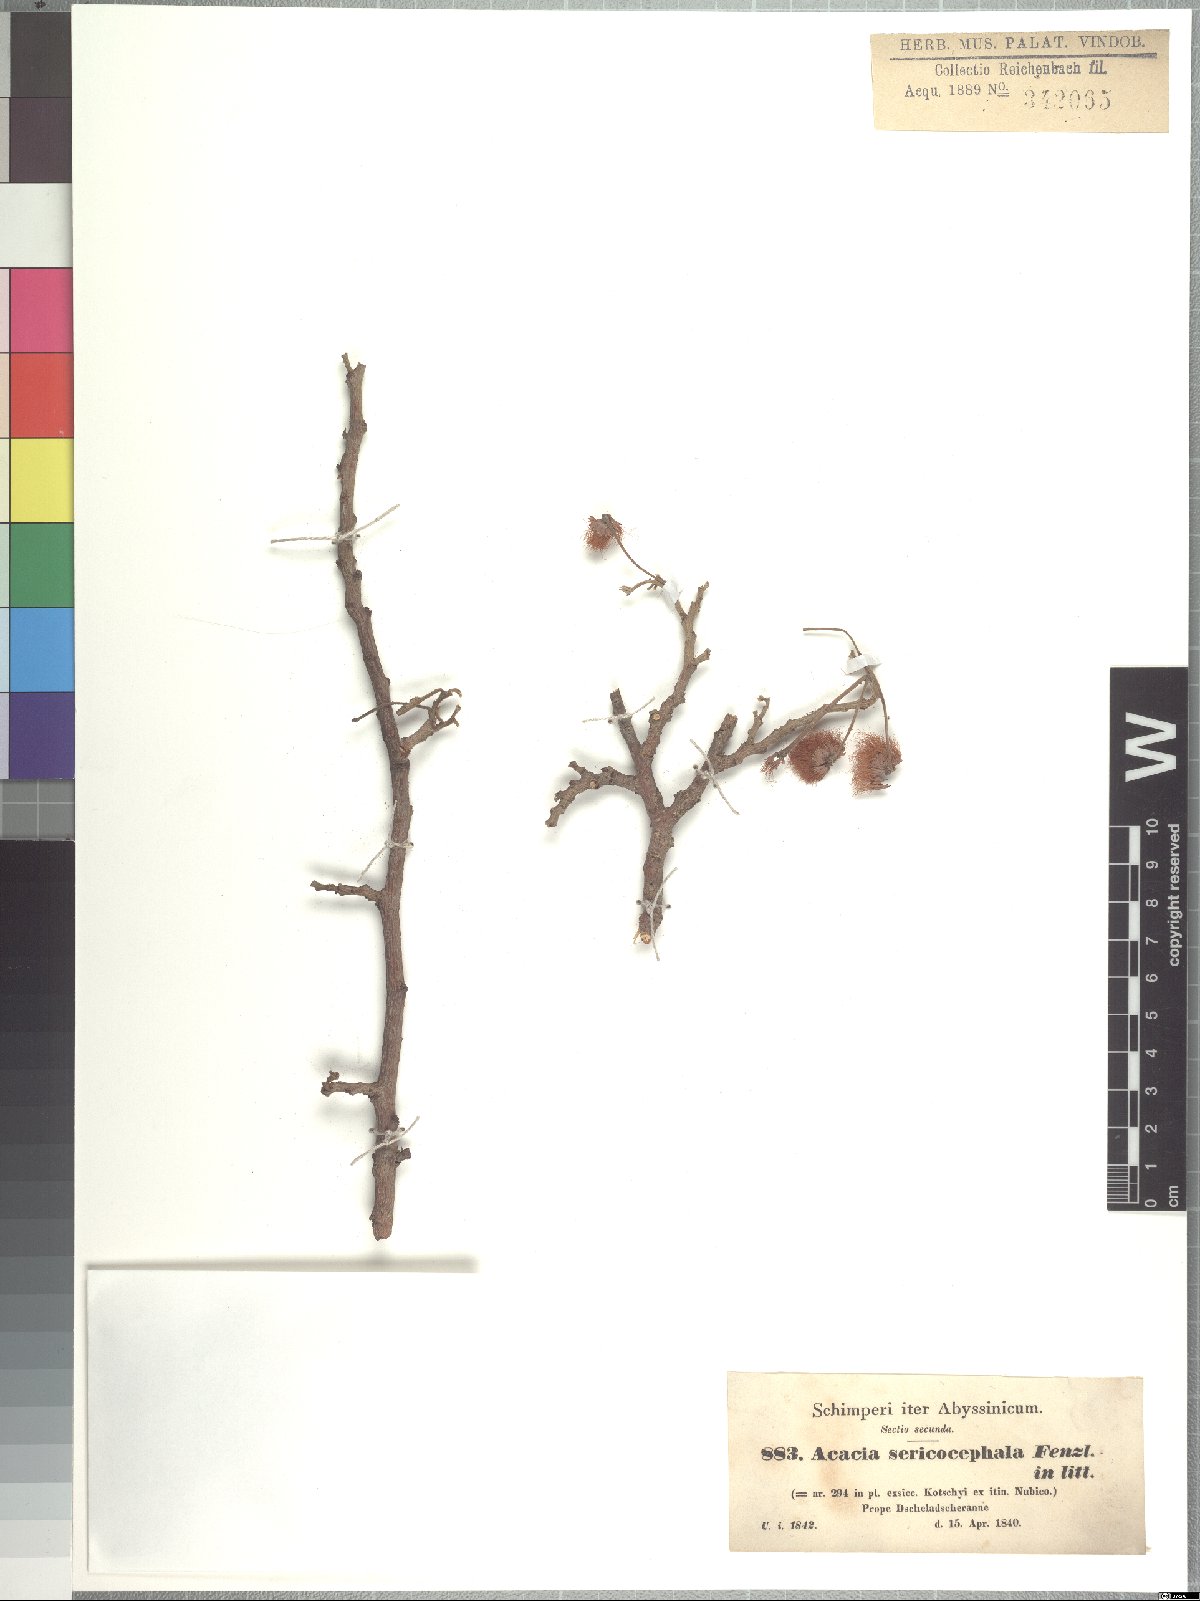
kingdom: Plantae
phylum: Tracheophyta
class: Magnoliopsida
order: Fabales
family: Fabaceae
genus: Albizia
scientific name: Albizia amara
